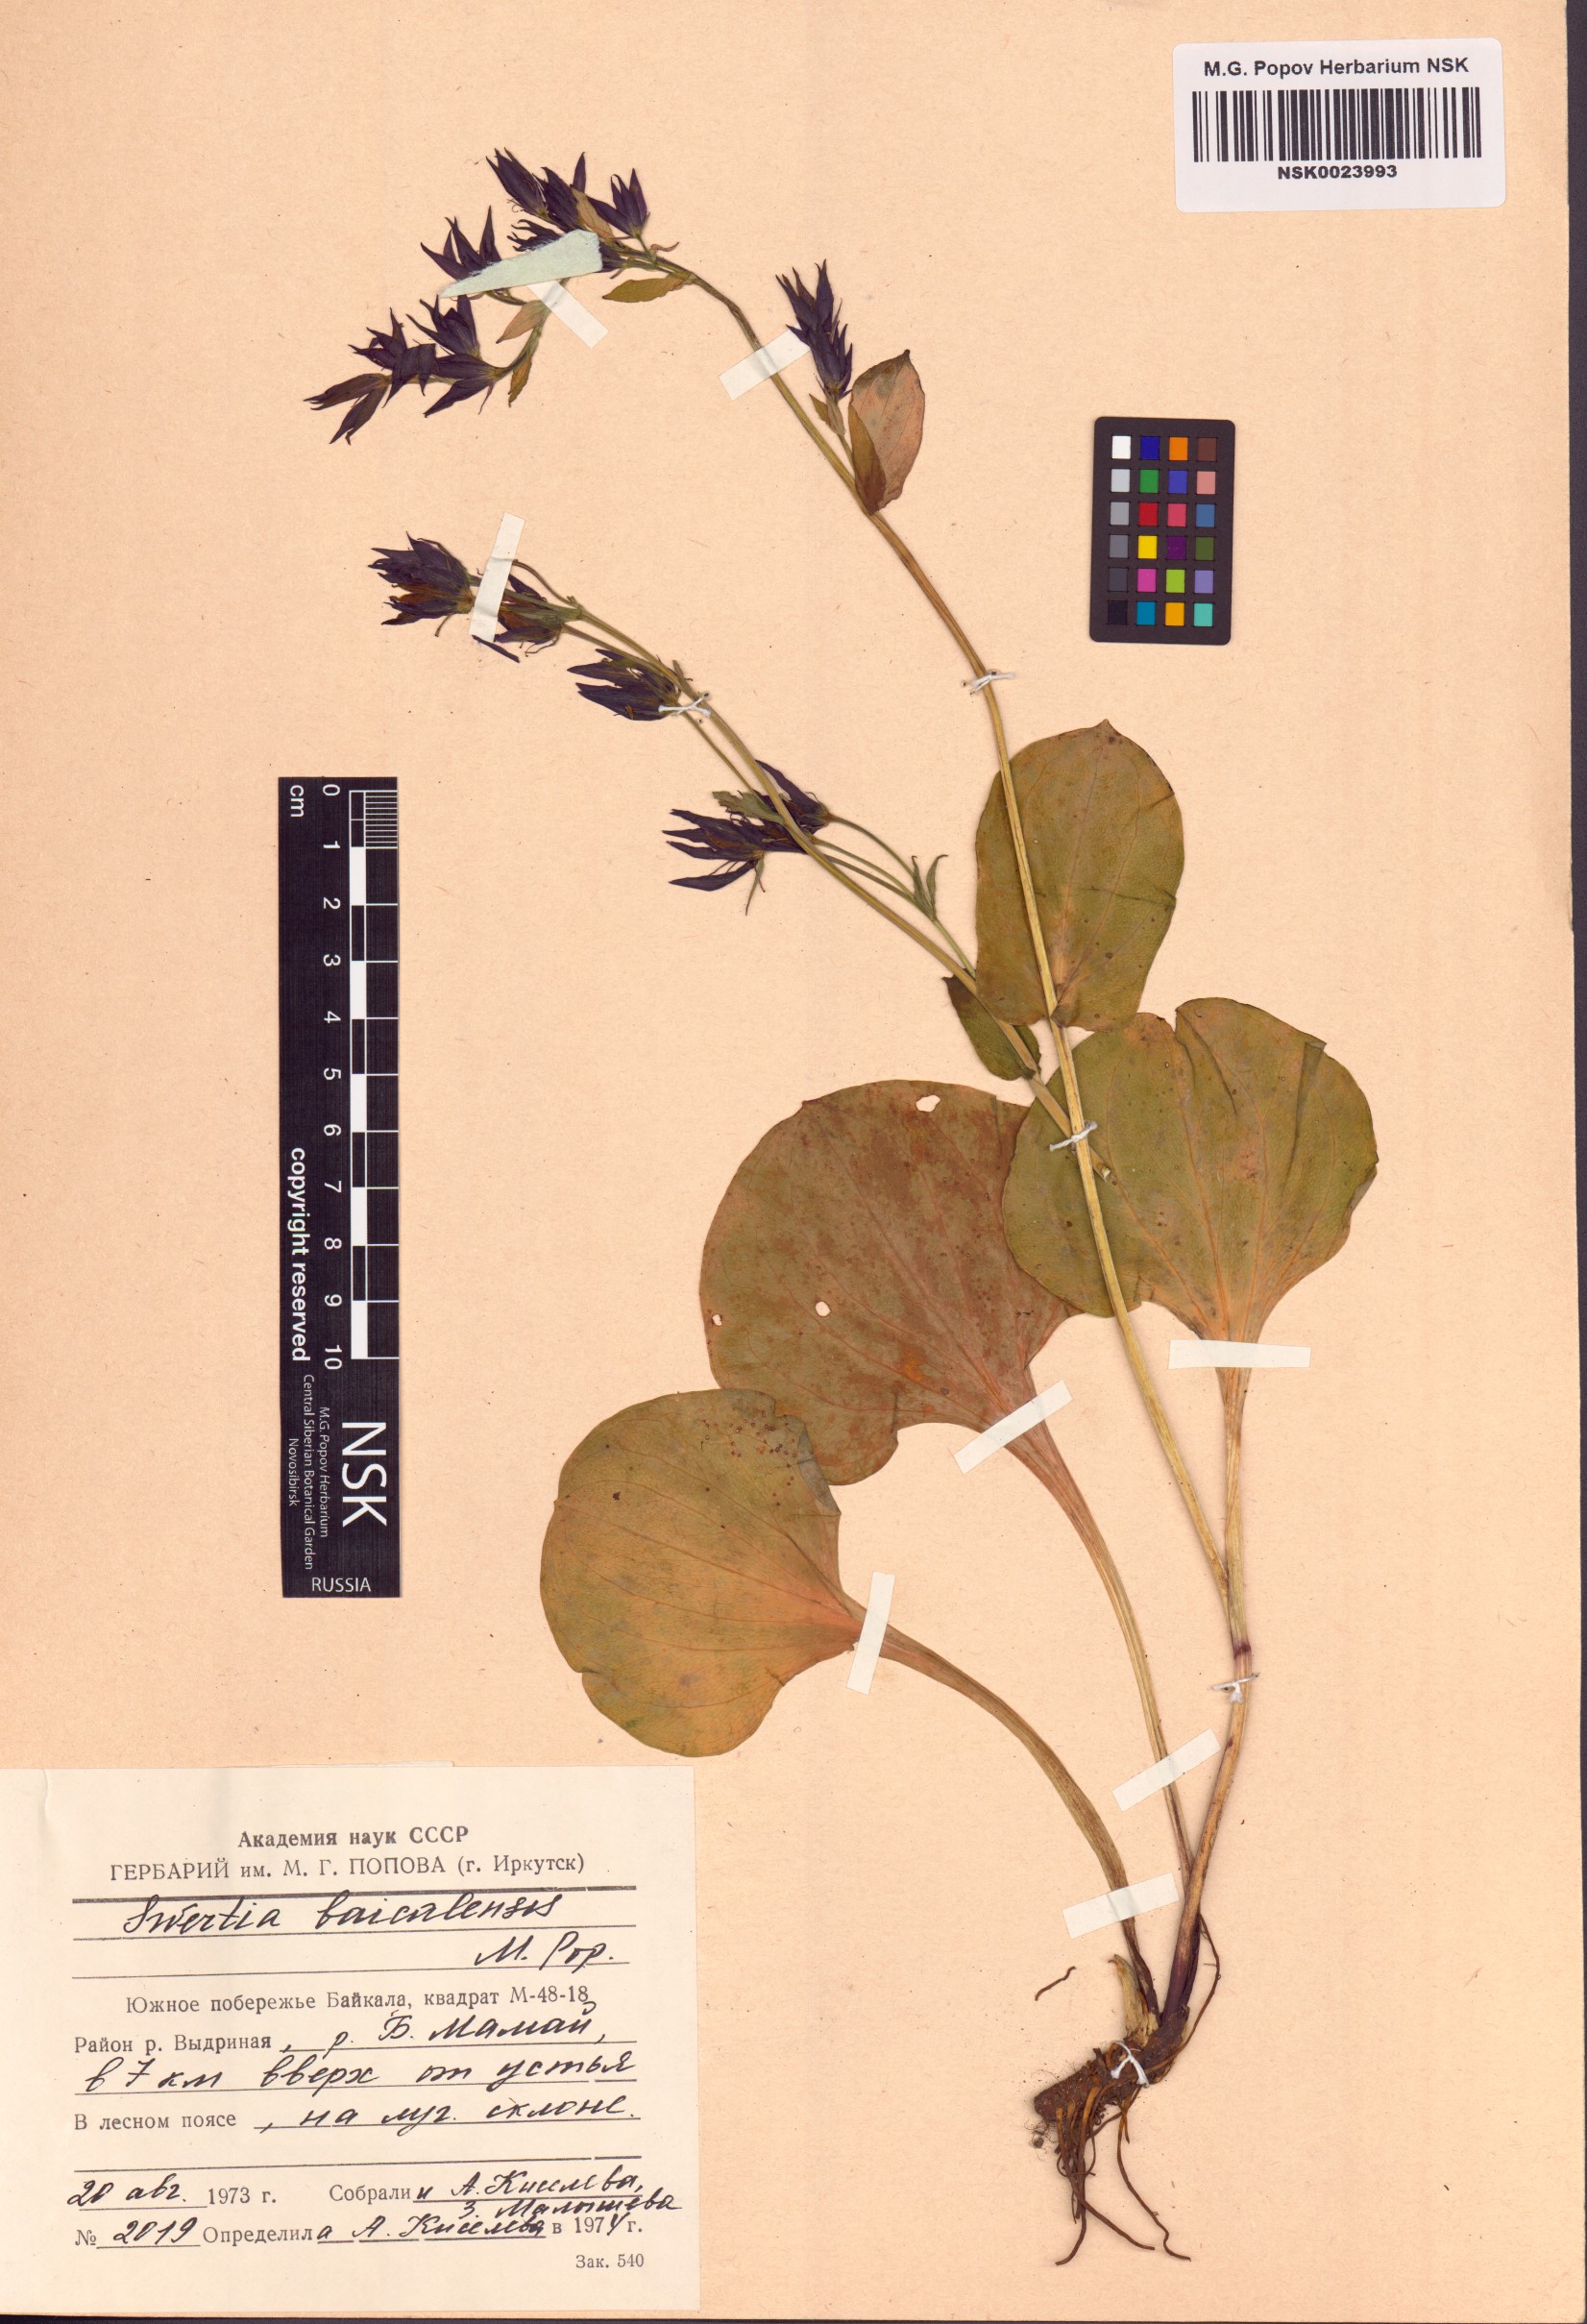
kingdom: Plantae
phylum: Tracheophyta
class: Magnoliopsida
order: Gentianales
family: Gentianaceae
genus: Swertia
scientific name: Swertia obtusa
